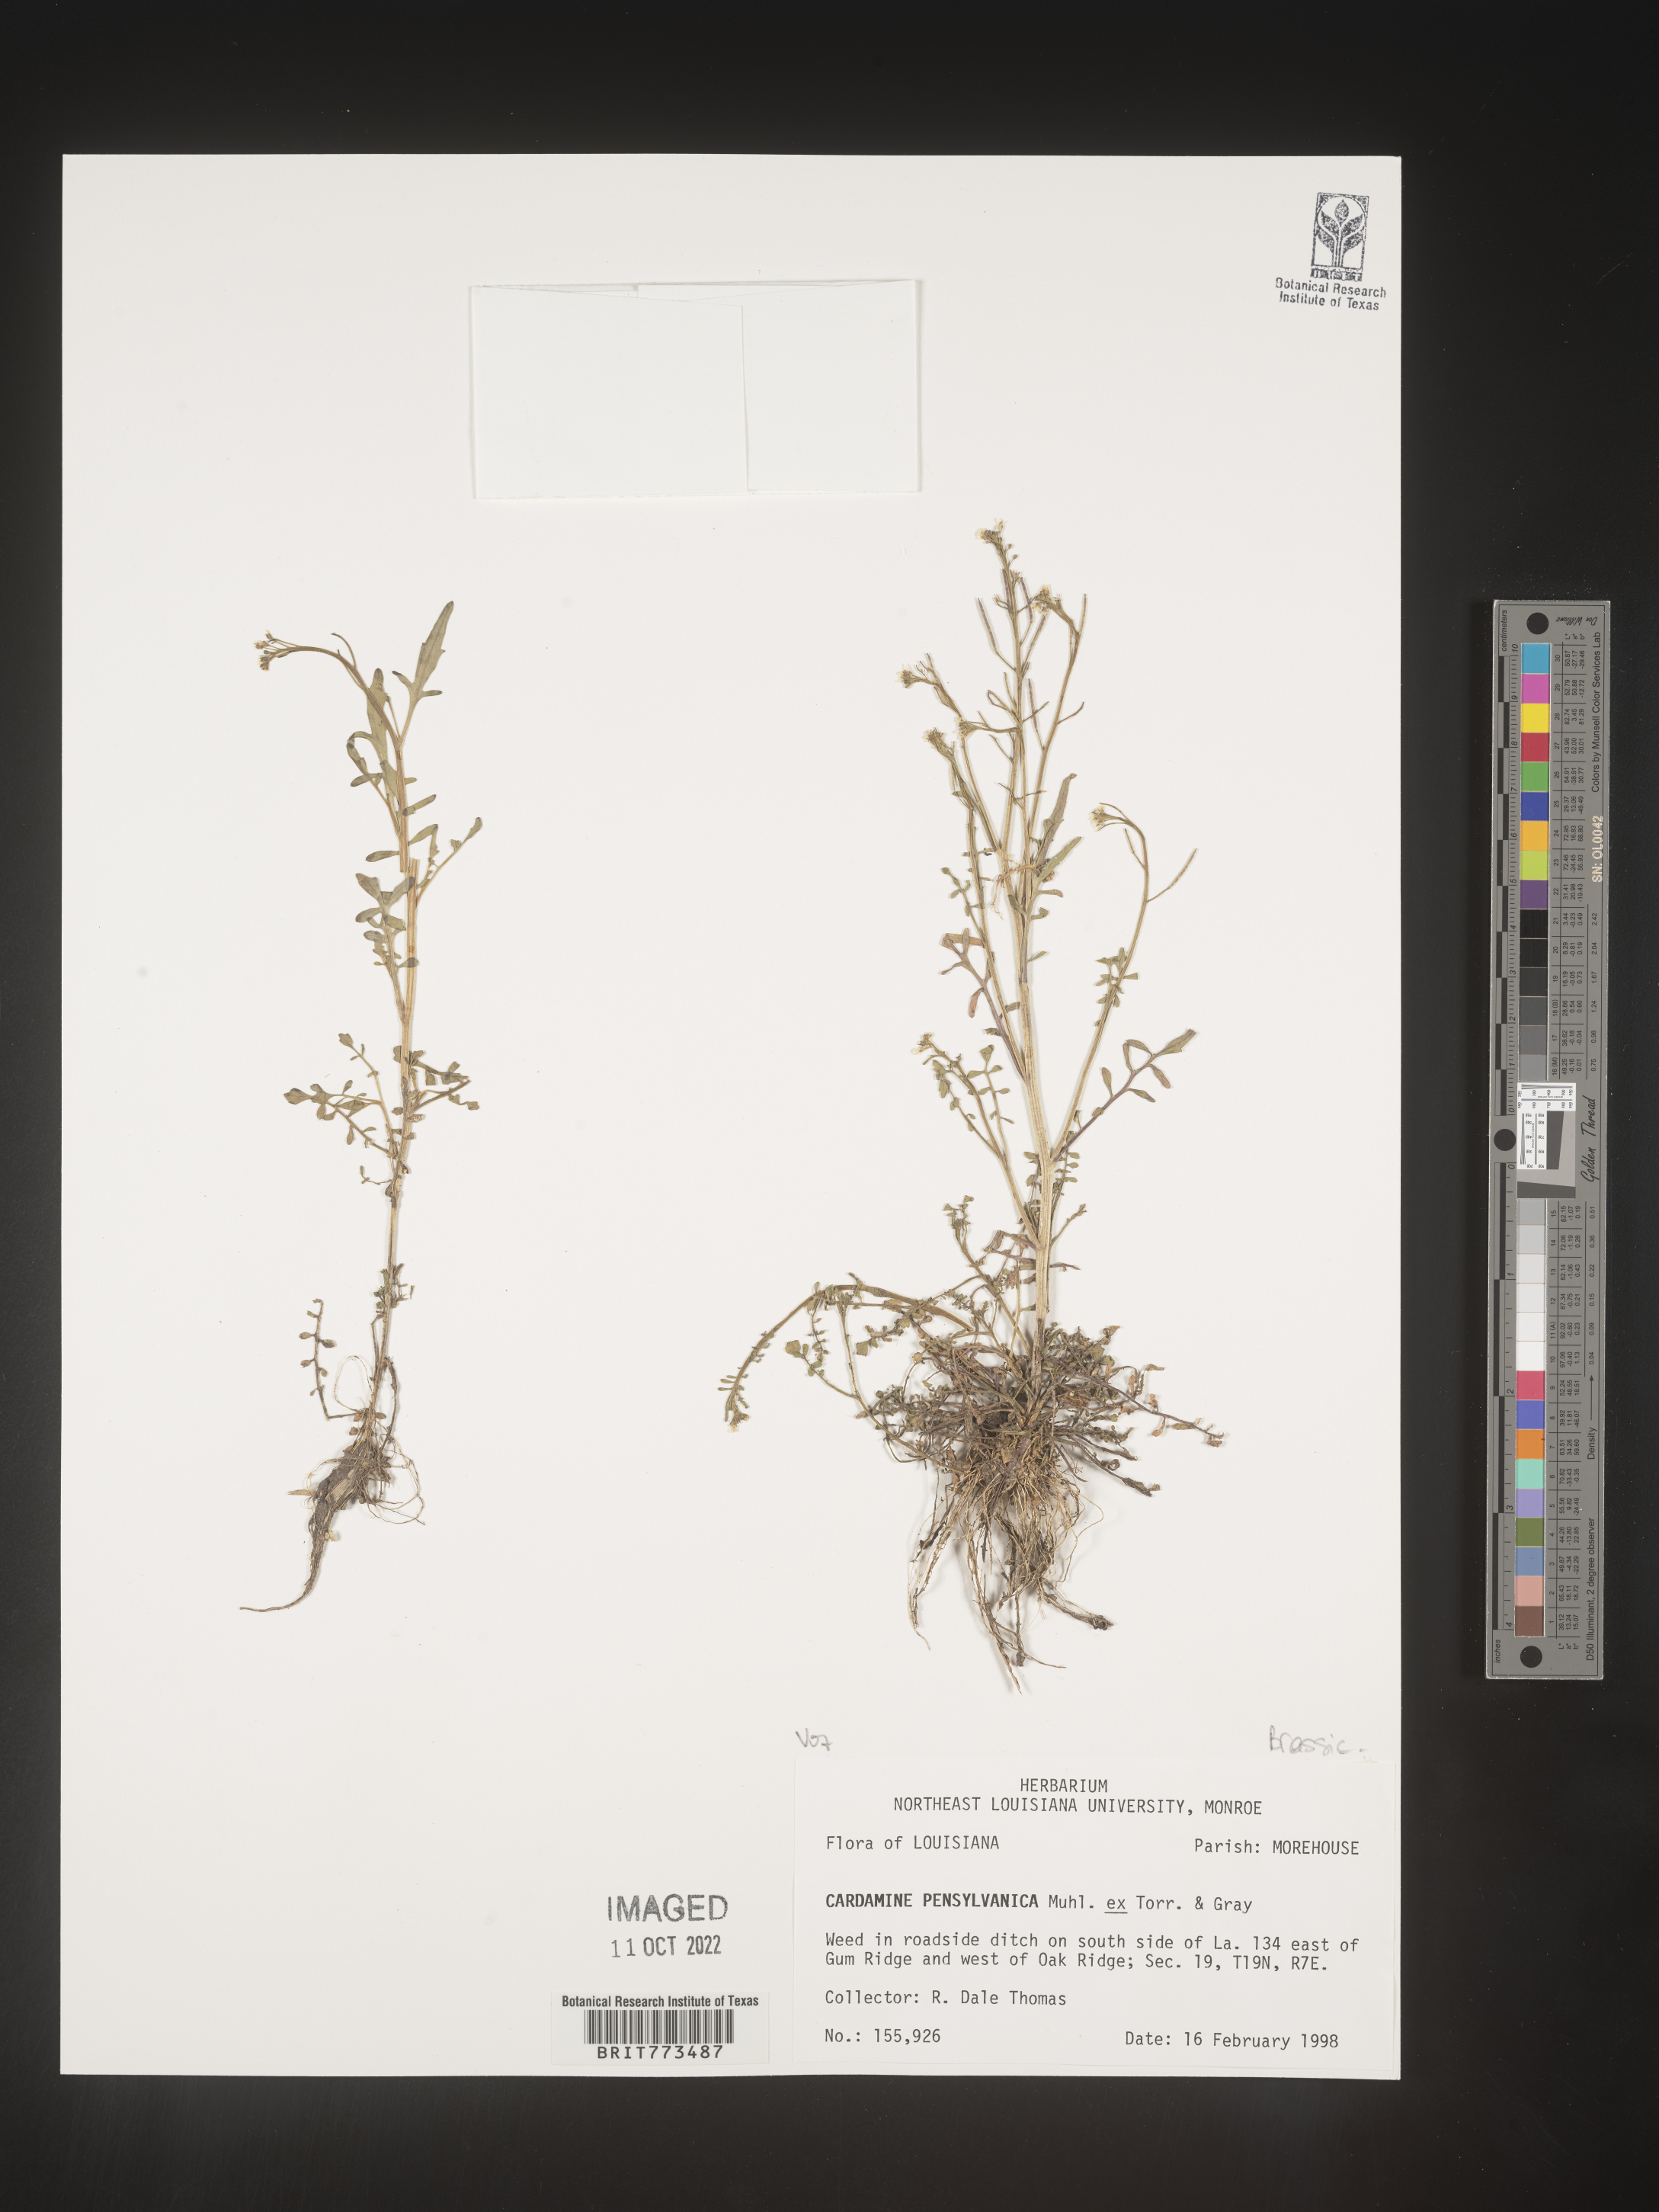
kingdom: Plantae
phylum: Tracheophyta
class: Magnoliopsida
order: Brassicales
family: Brassicaceae
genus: Cardamine
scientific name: Cardamine pensylvanica
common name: Pennsylvania bittercress
